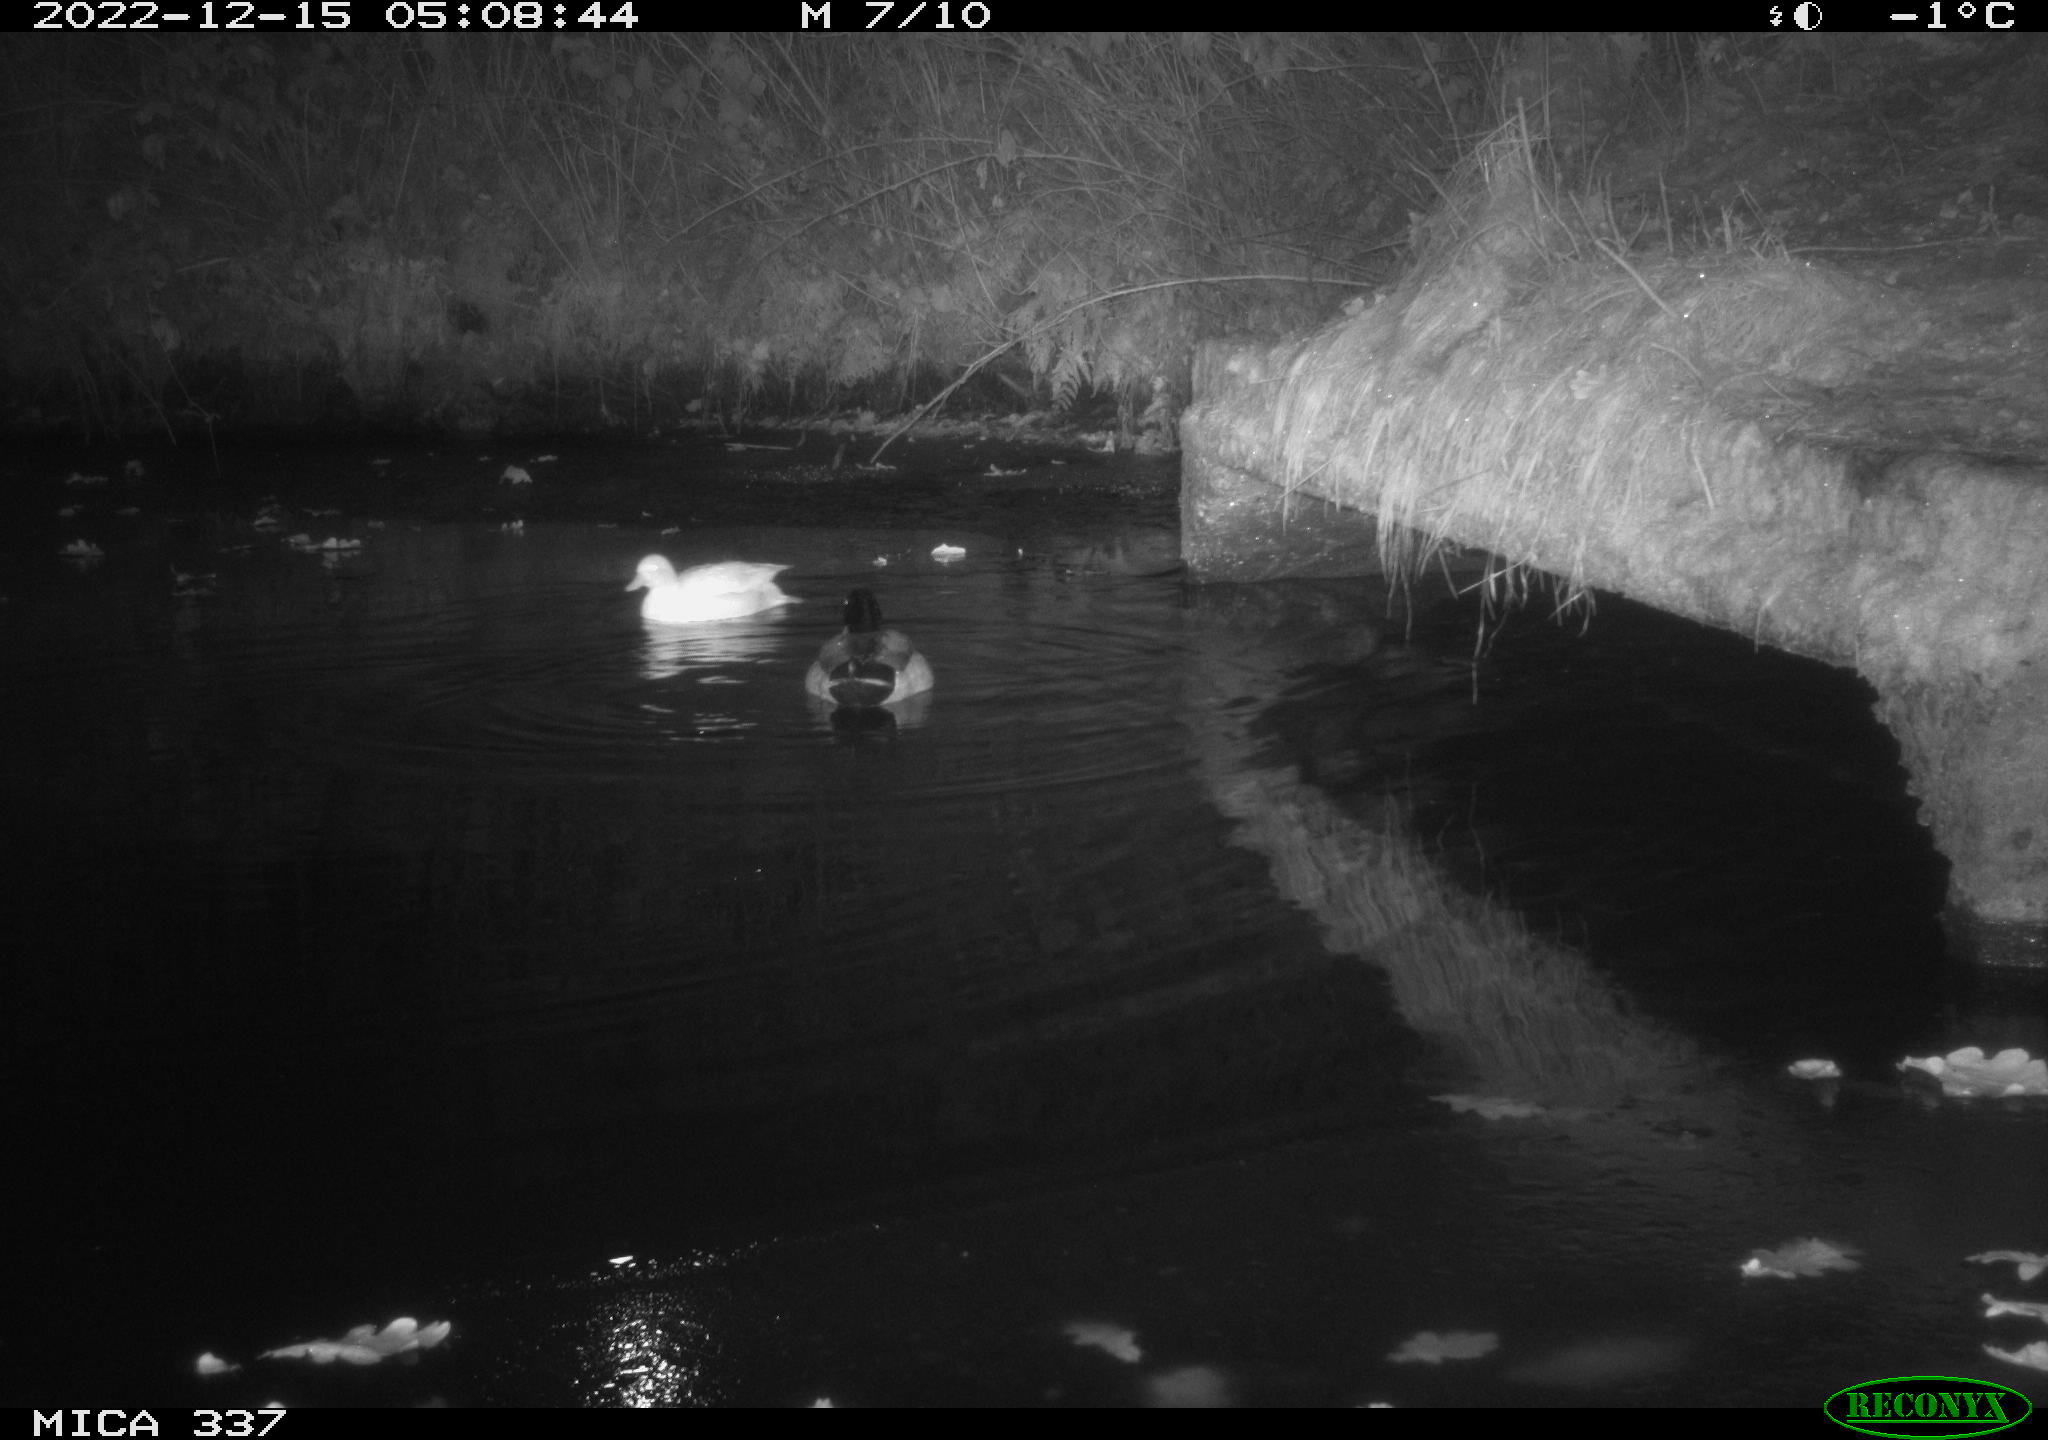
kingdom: Animalia
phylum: Chordata
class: Aves
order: Anseriformes
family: Anatidae
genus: Anas
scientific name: Anas
